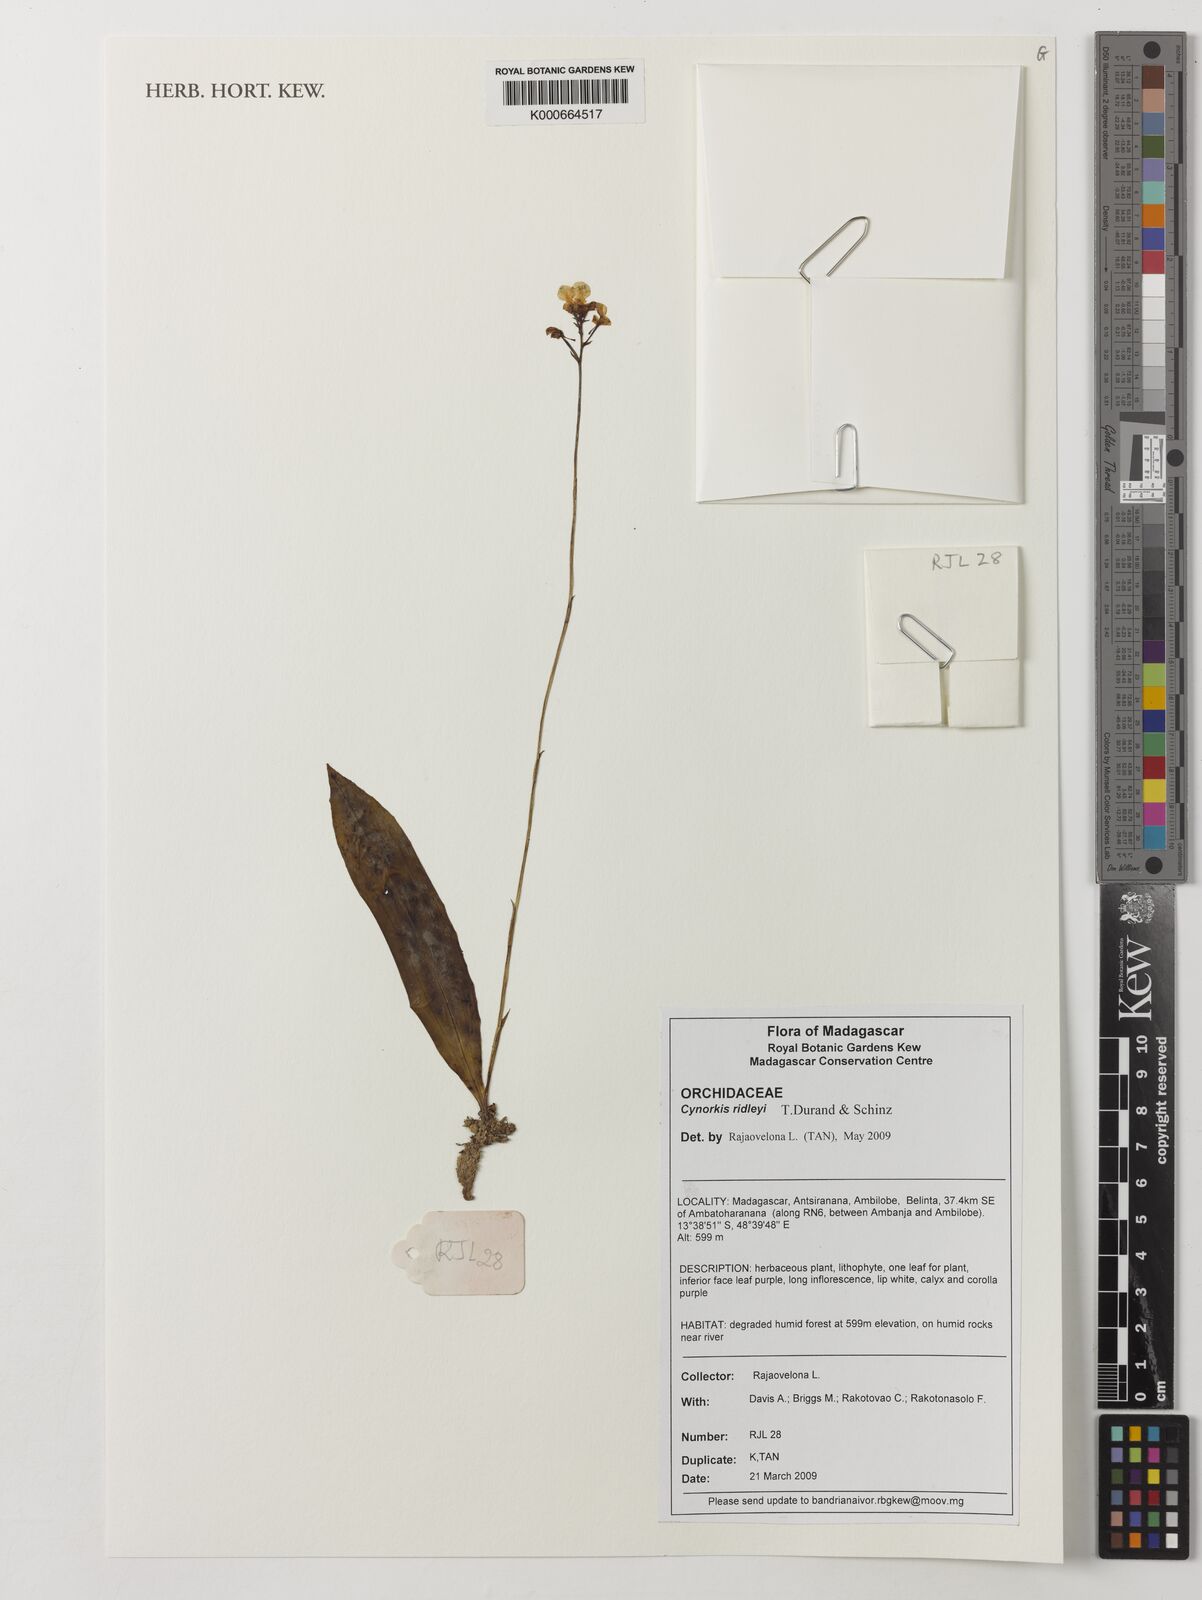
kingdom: Plantae
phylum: Tracheophyta
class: Liliopsida
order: Asparagales
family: Orchidaceae
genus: Cynorkis
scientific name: Cynorkis ridleyi
